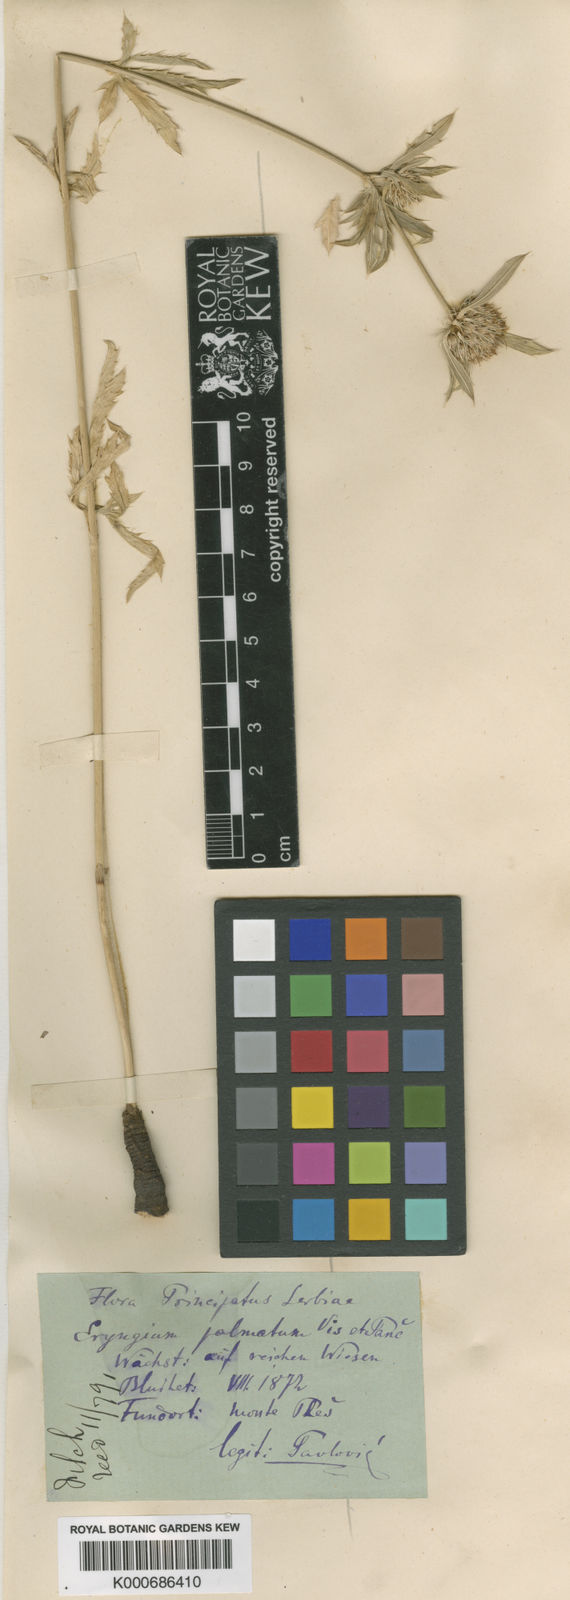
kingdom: Plantae
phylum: Tracheophyta
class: Magnoliopsida
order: Apiales
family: Apiaceae
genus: Eryngium
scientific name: Eryngium palmatum
